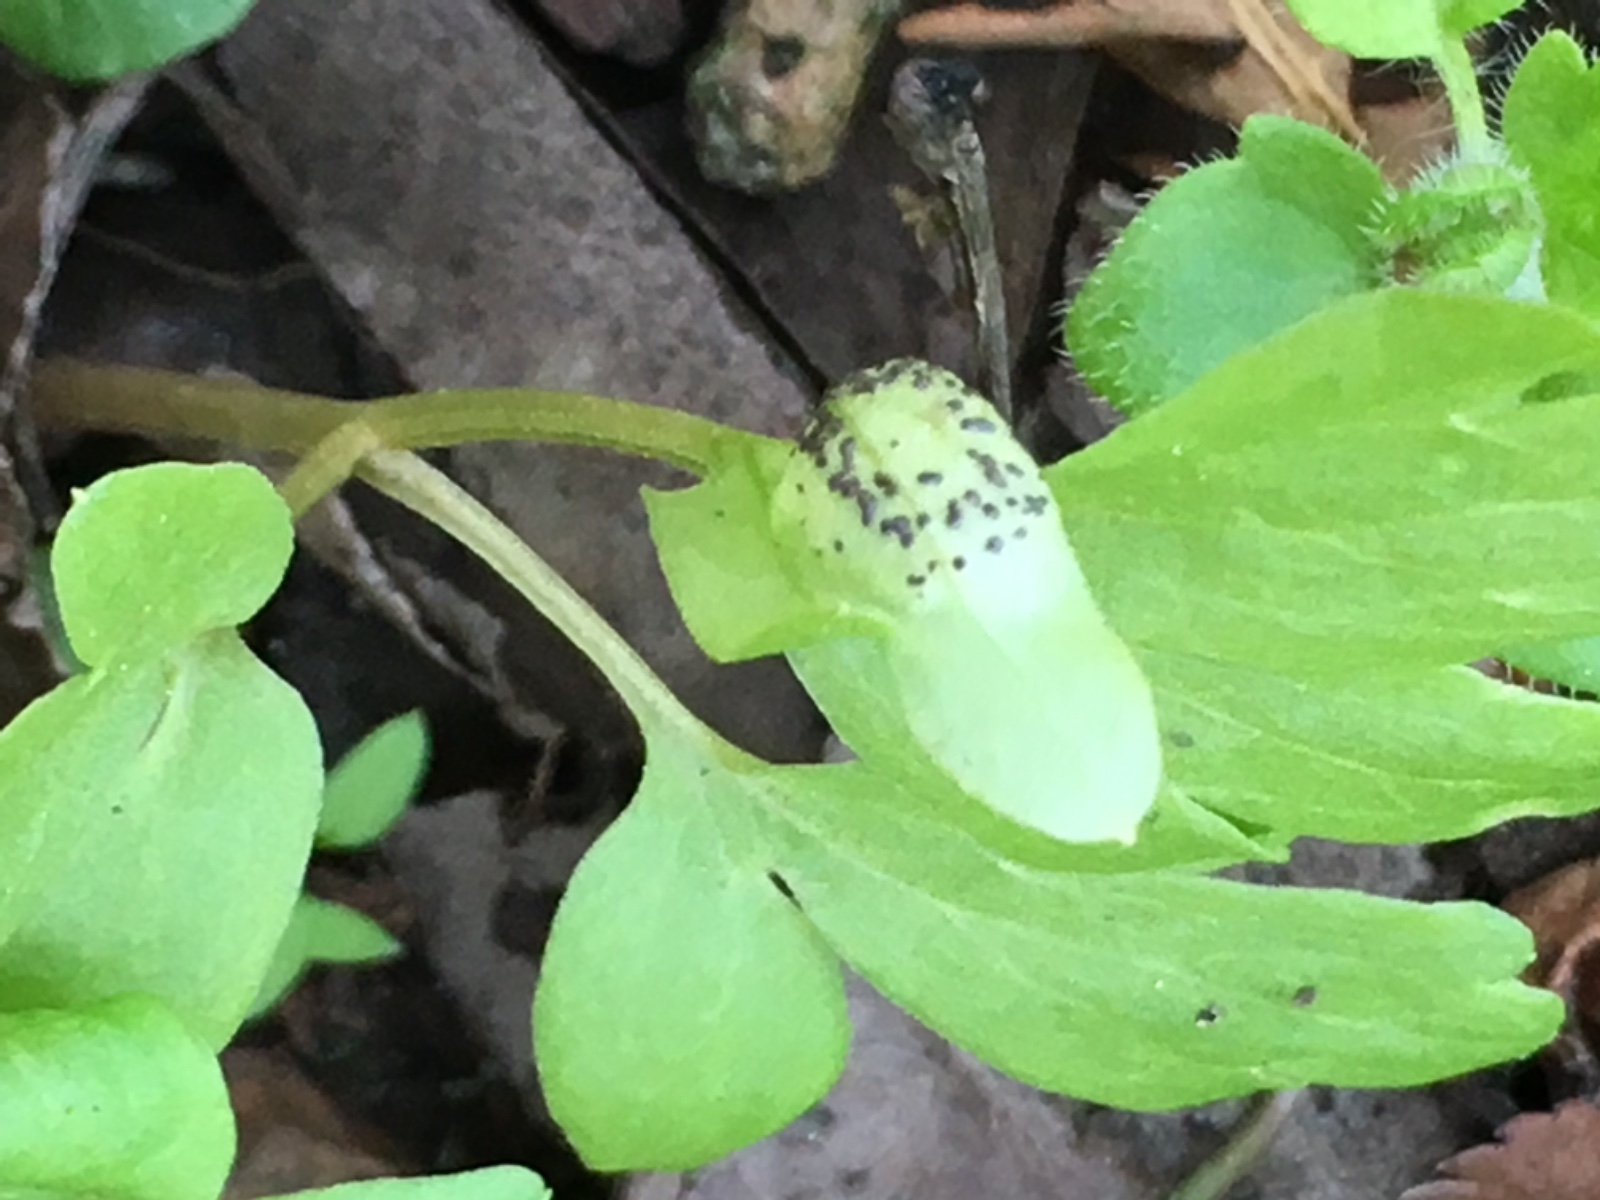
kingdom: Fungi
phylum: Basidiomycota
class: Pucciniomycetes
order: Pucciniales
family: Pucciniaceae
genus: Puccinia
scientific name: Puccinia adoxae
